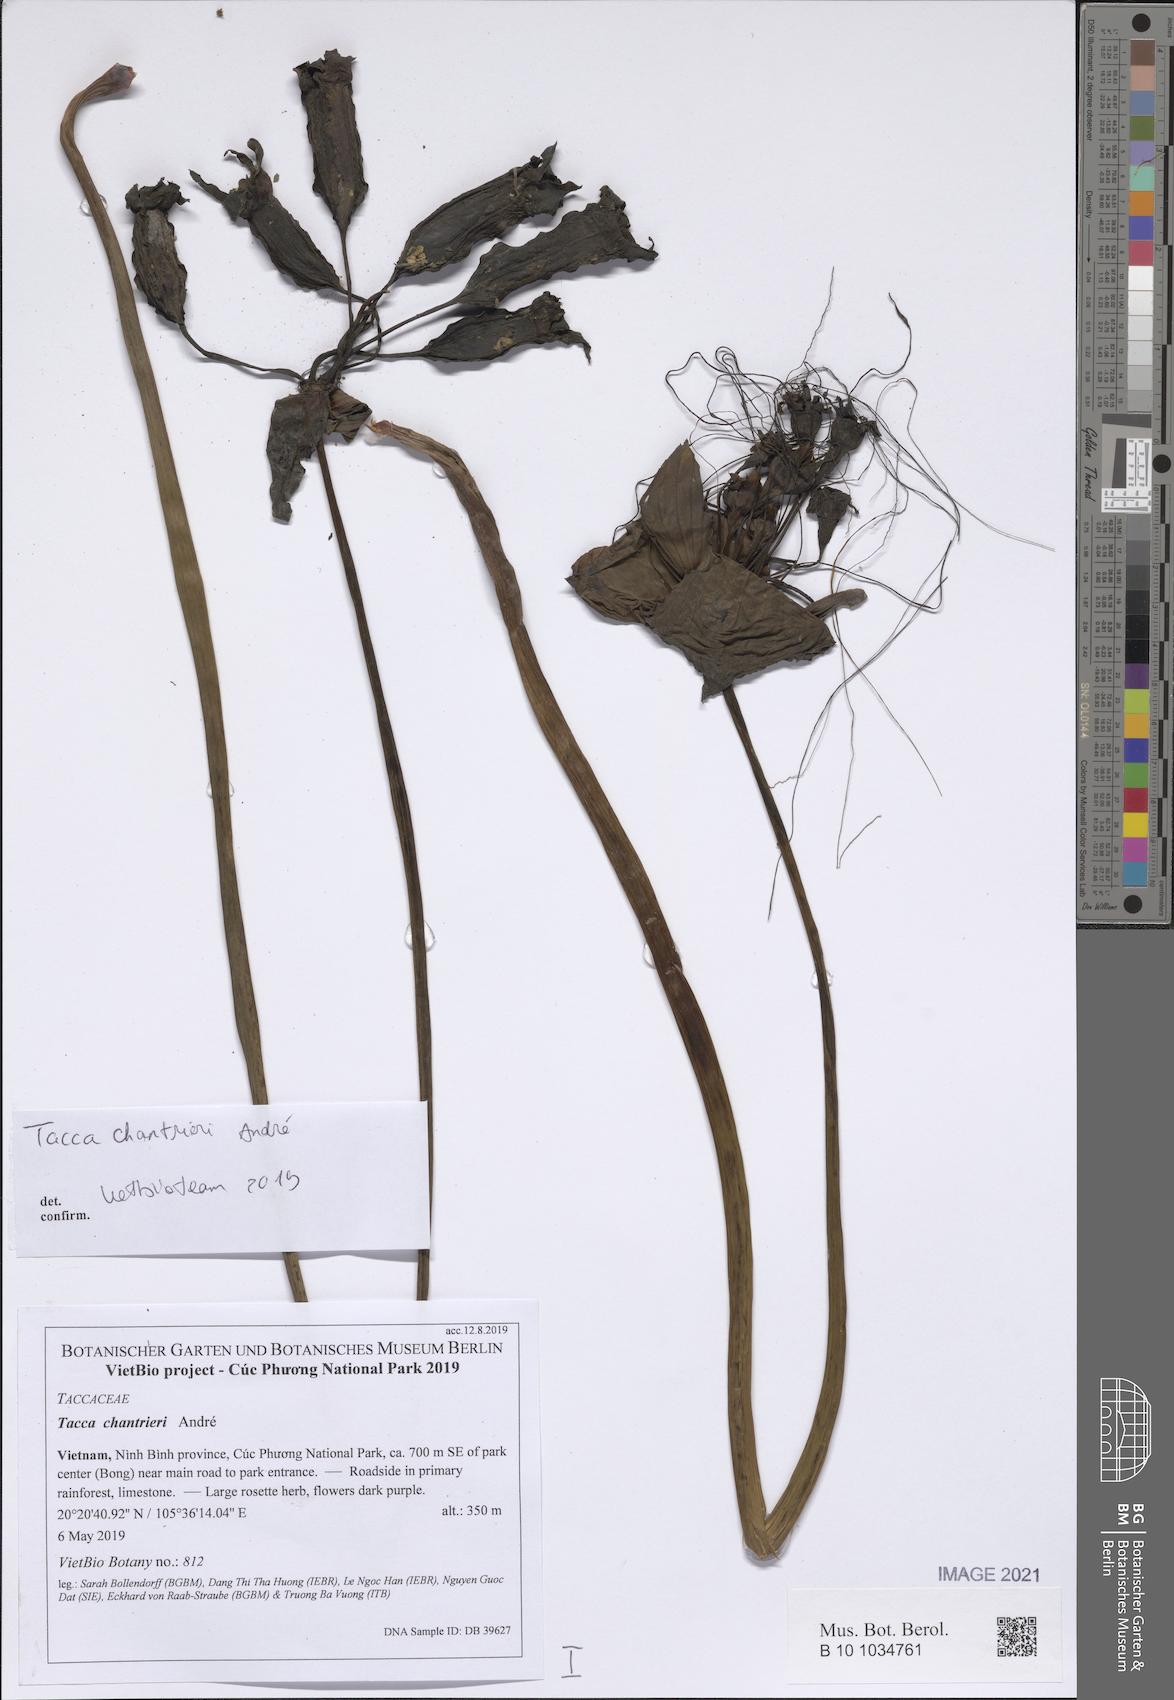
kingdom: Plantae
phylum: Tracheophyta
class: Liliopsida
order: Dioscoreales
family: Dioscoreaceae
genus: Tacca
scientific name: Tacca chantrieri
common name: Cat's-whiskers
